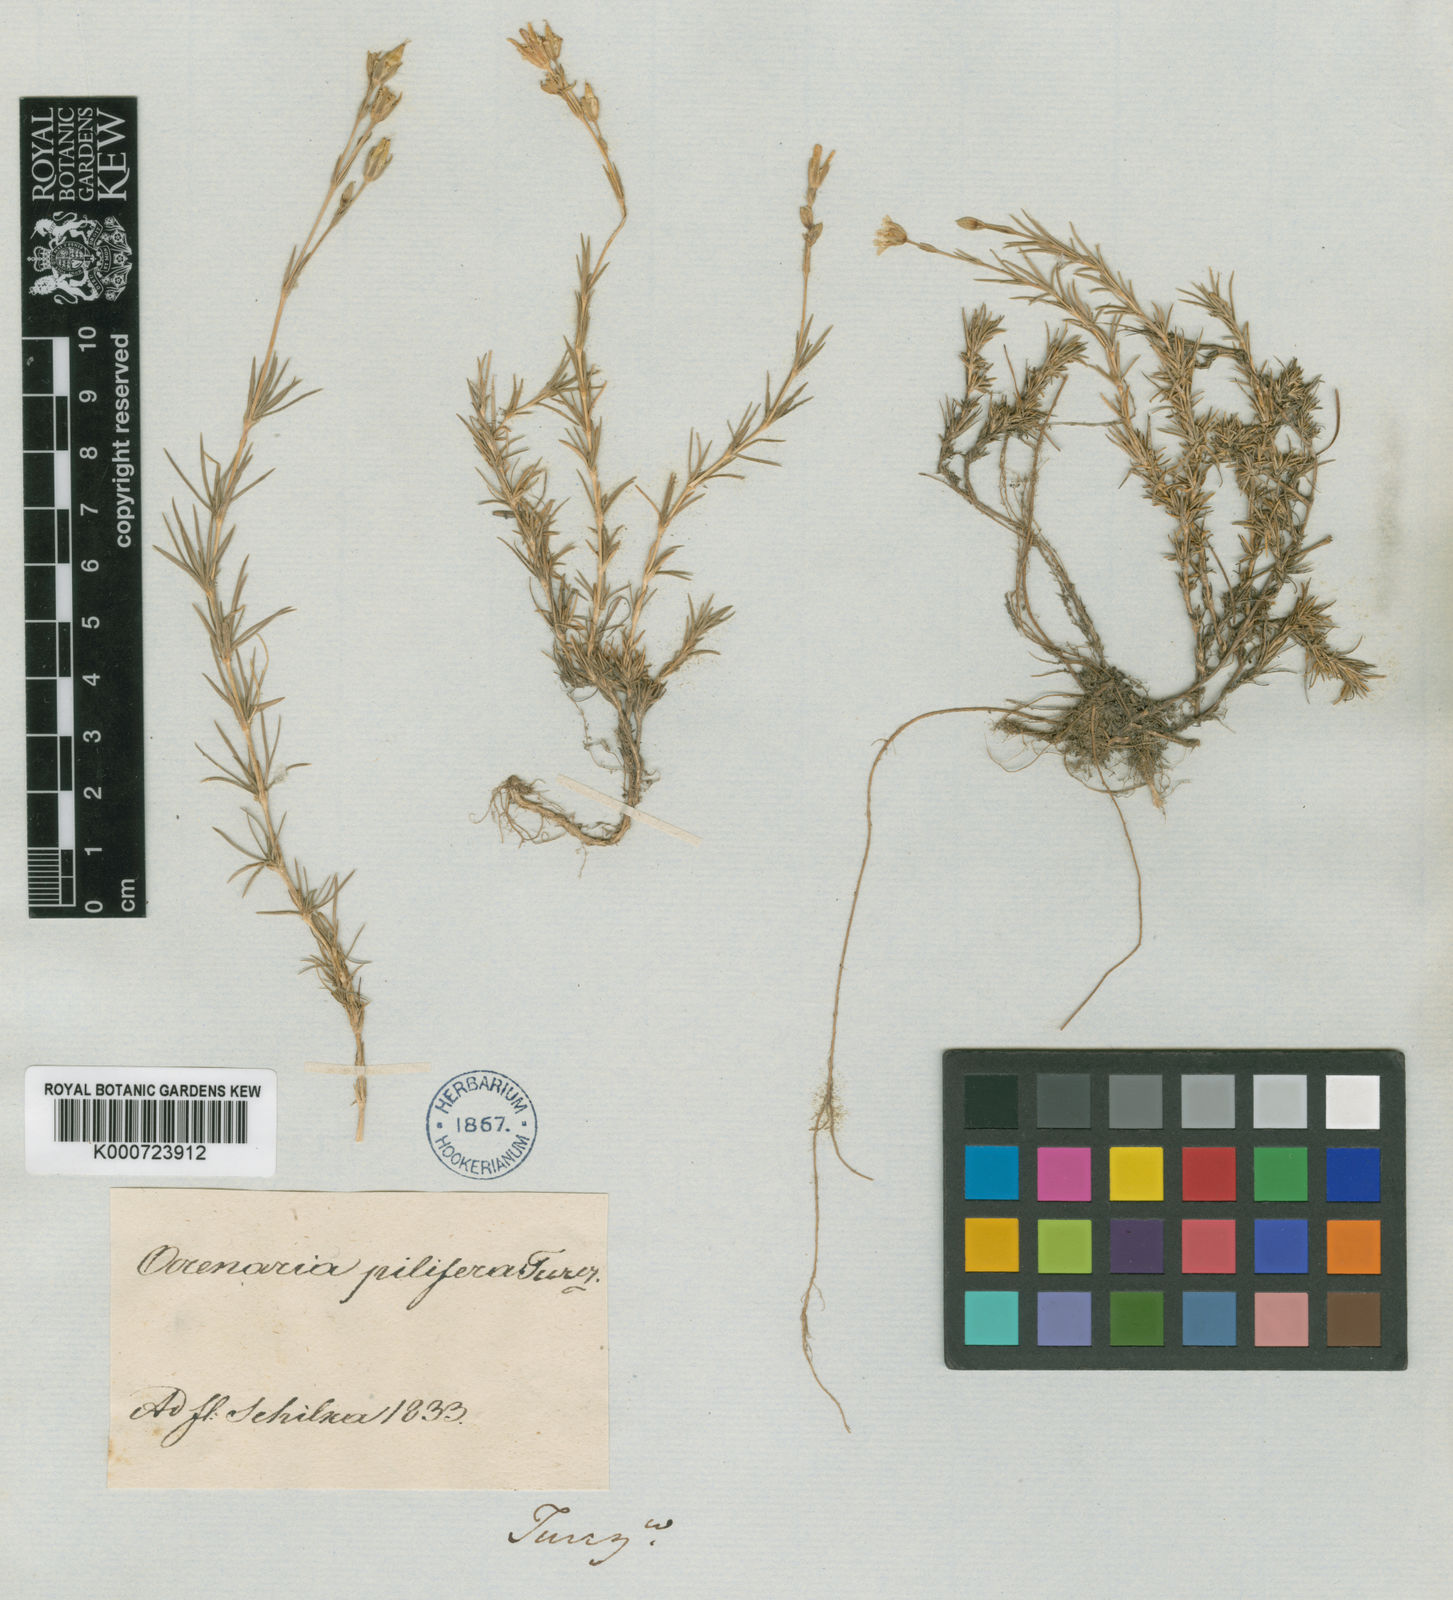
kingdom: Plantae
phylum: Tracheophyta
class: Magnoliopsida
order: Caryophyllales
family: Caryophyllaceae
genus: Pseudocherleria
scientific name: Pseudocherleria laricina
